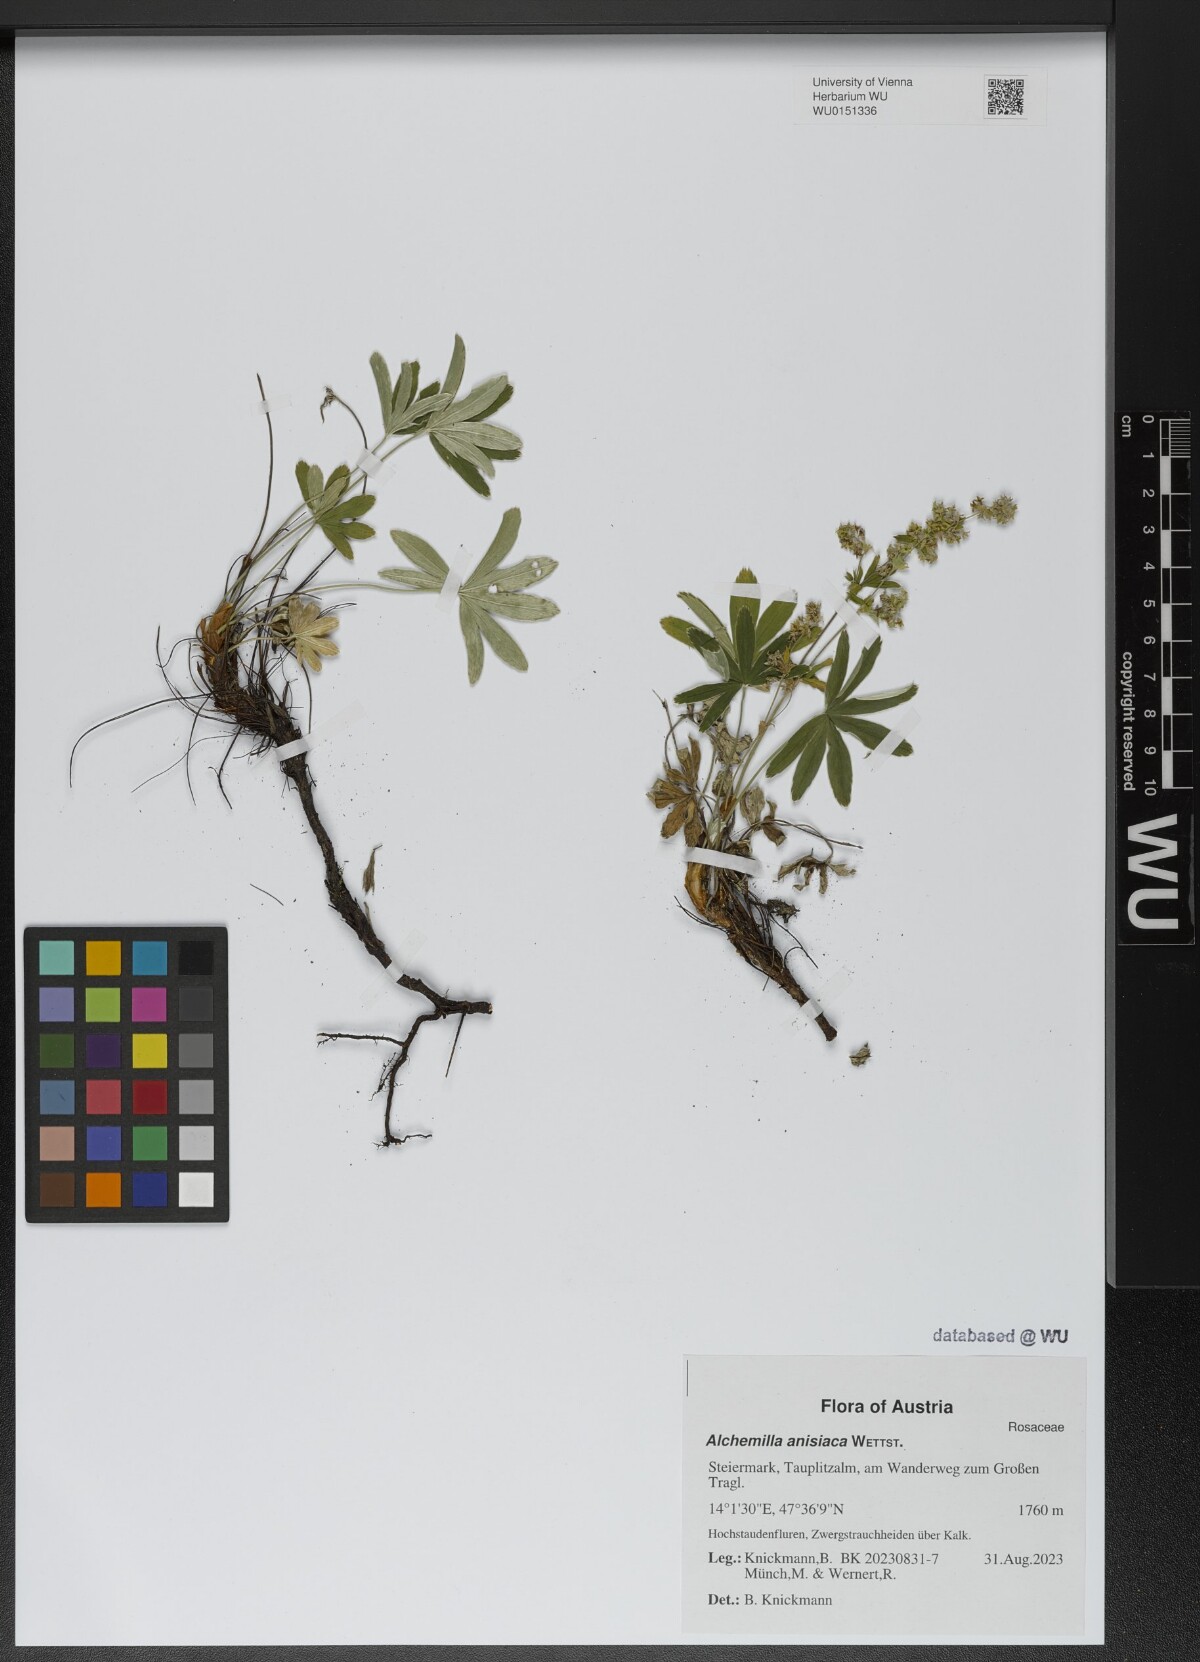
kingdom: Plantae
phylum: Tracheophyta
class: Magnoliopsida
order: Rosales
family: Rosaceae
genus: Alchemilla
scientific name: Alchemilla anisiaca
